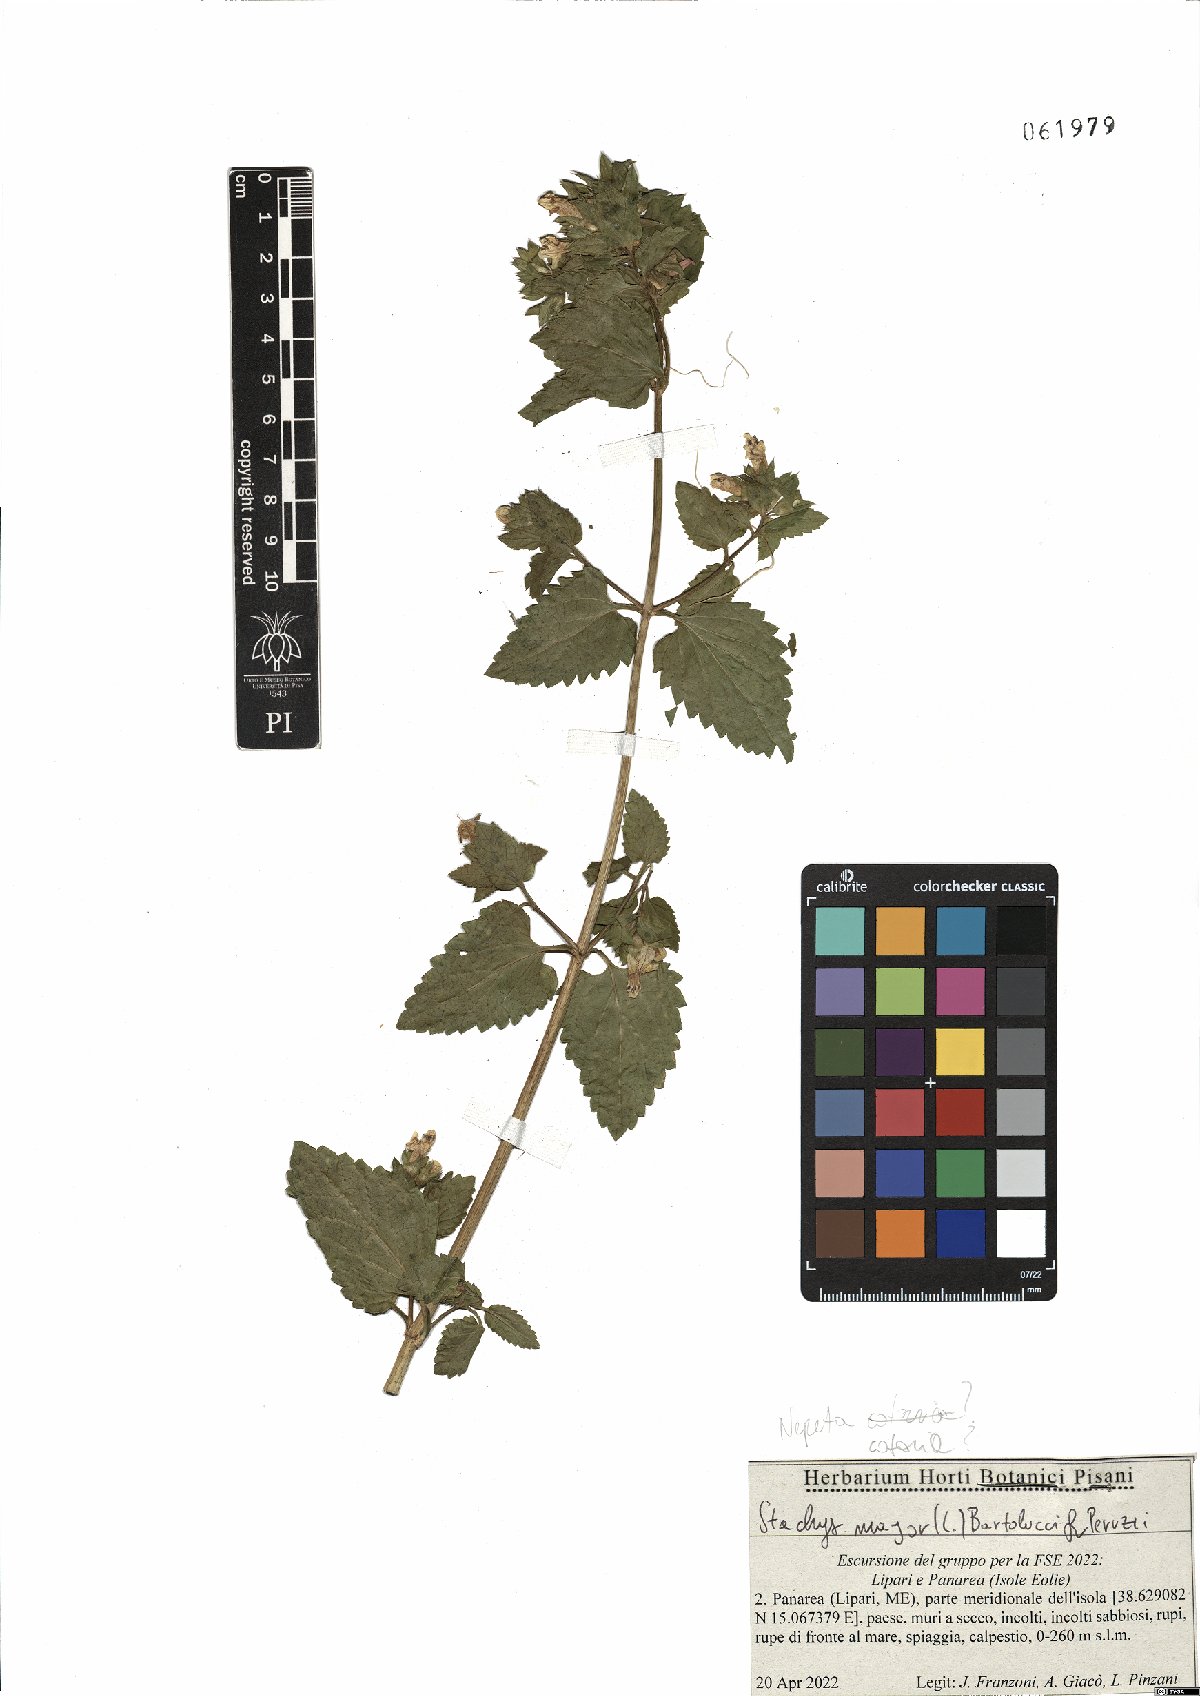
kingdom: Plantae
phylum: Tracheophyta
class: Magnoliopsida
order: Lamiales
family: Lamiaceae
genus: Prasium
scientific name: Prasium majus
